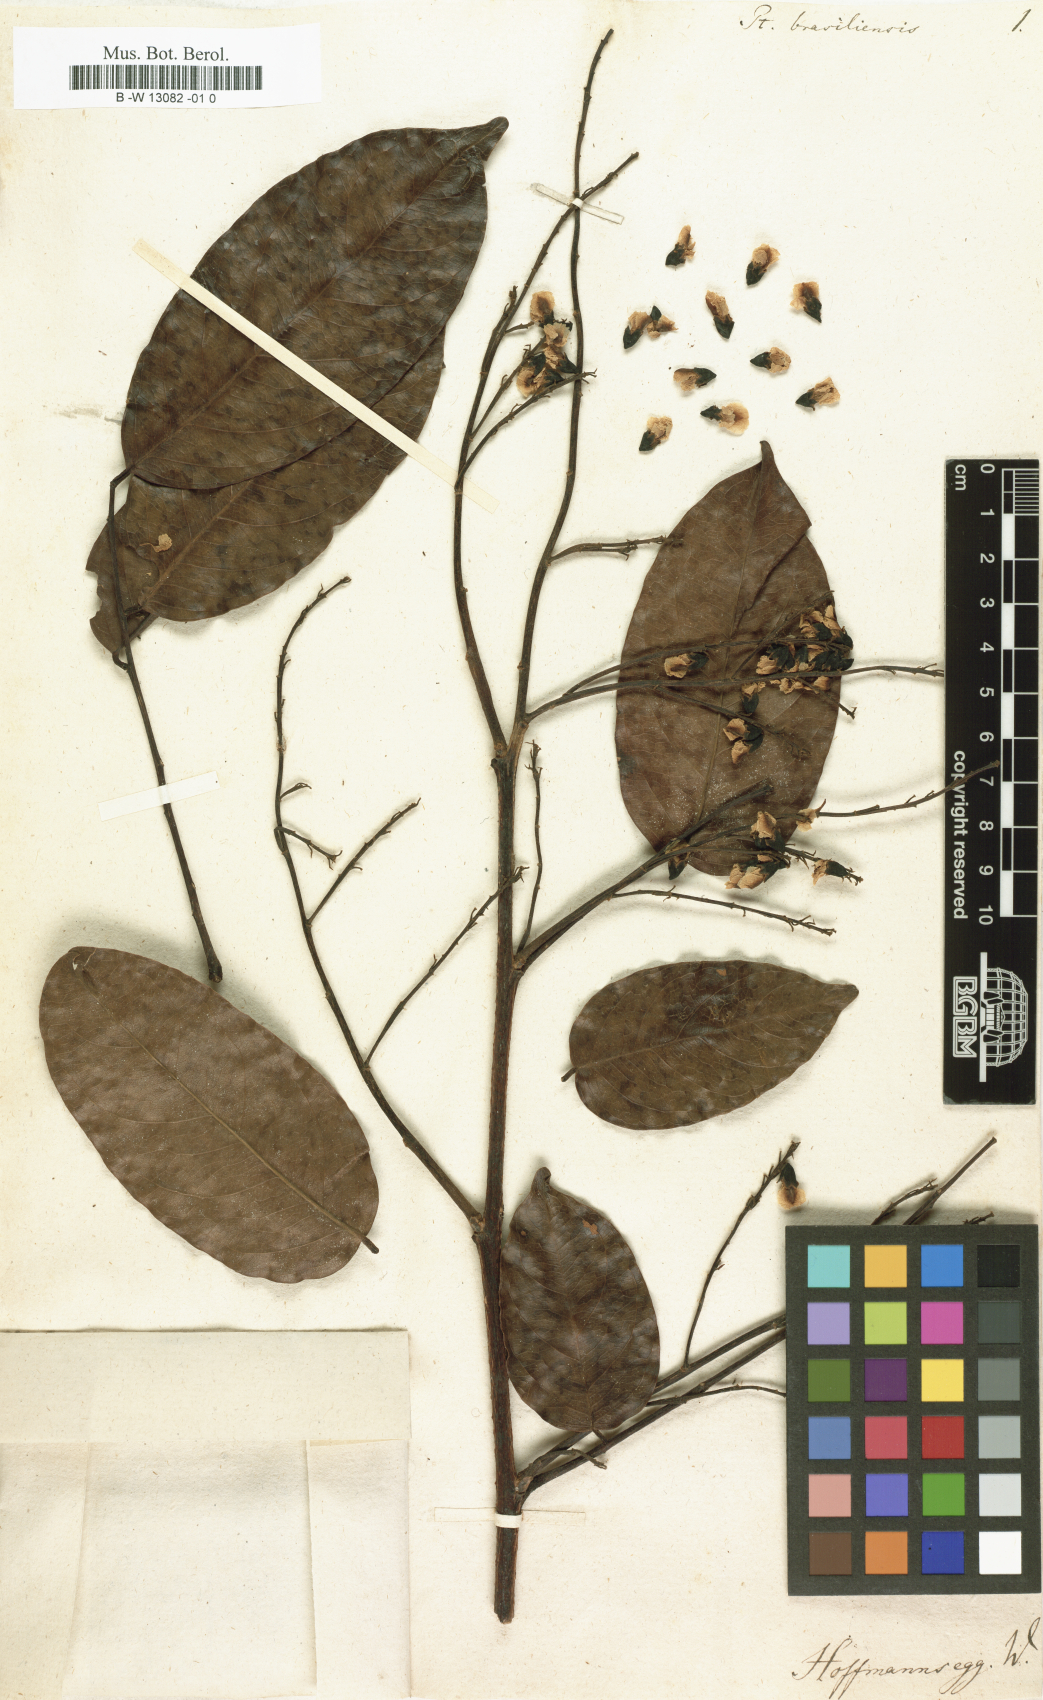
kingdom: Plantae
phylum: Tracheophyta
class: Magnoliopsida
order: Fabales
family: Fabaceae
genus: Pterocarpus
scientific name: Pterocarpus
